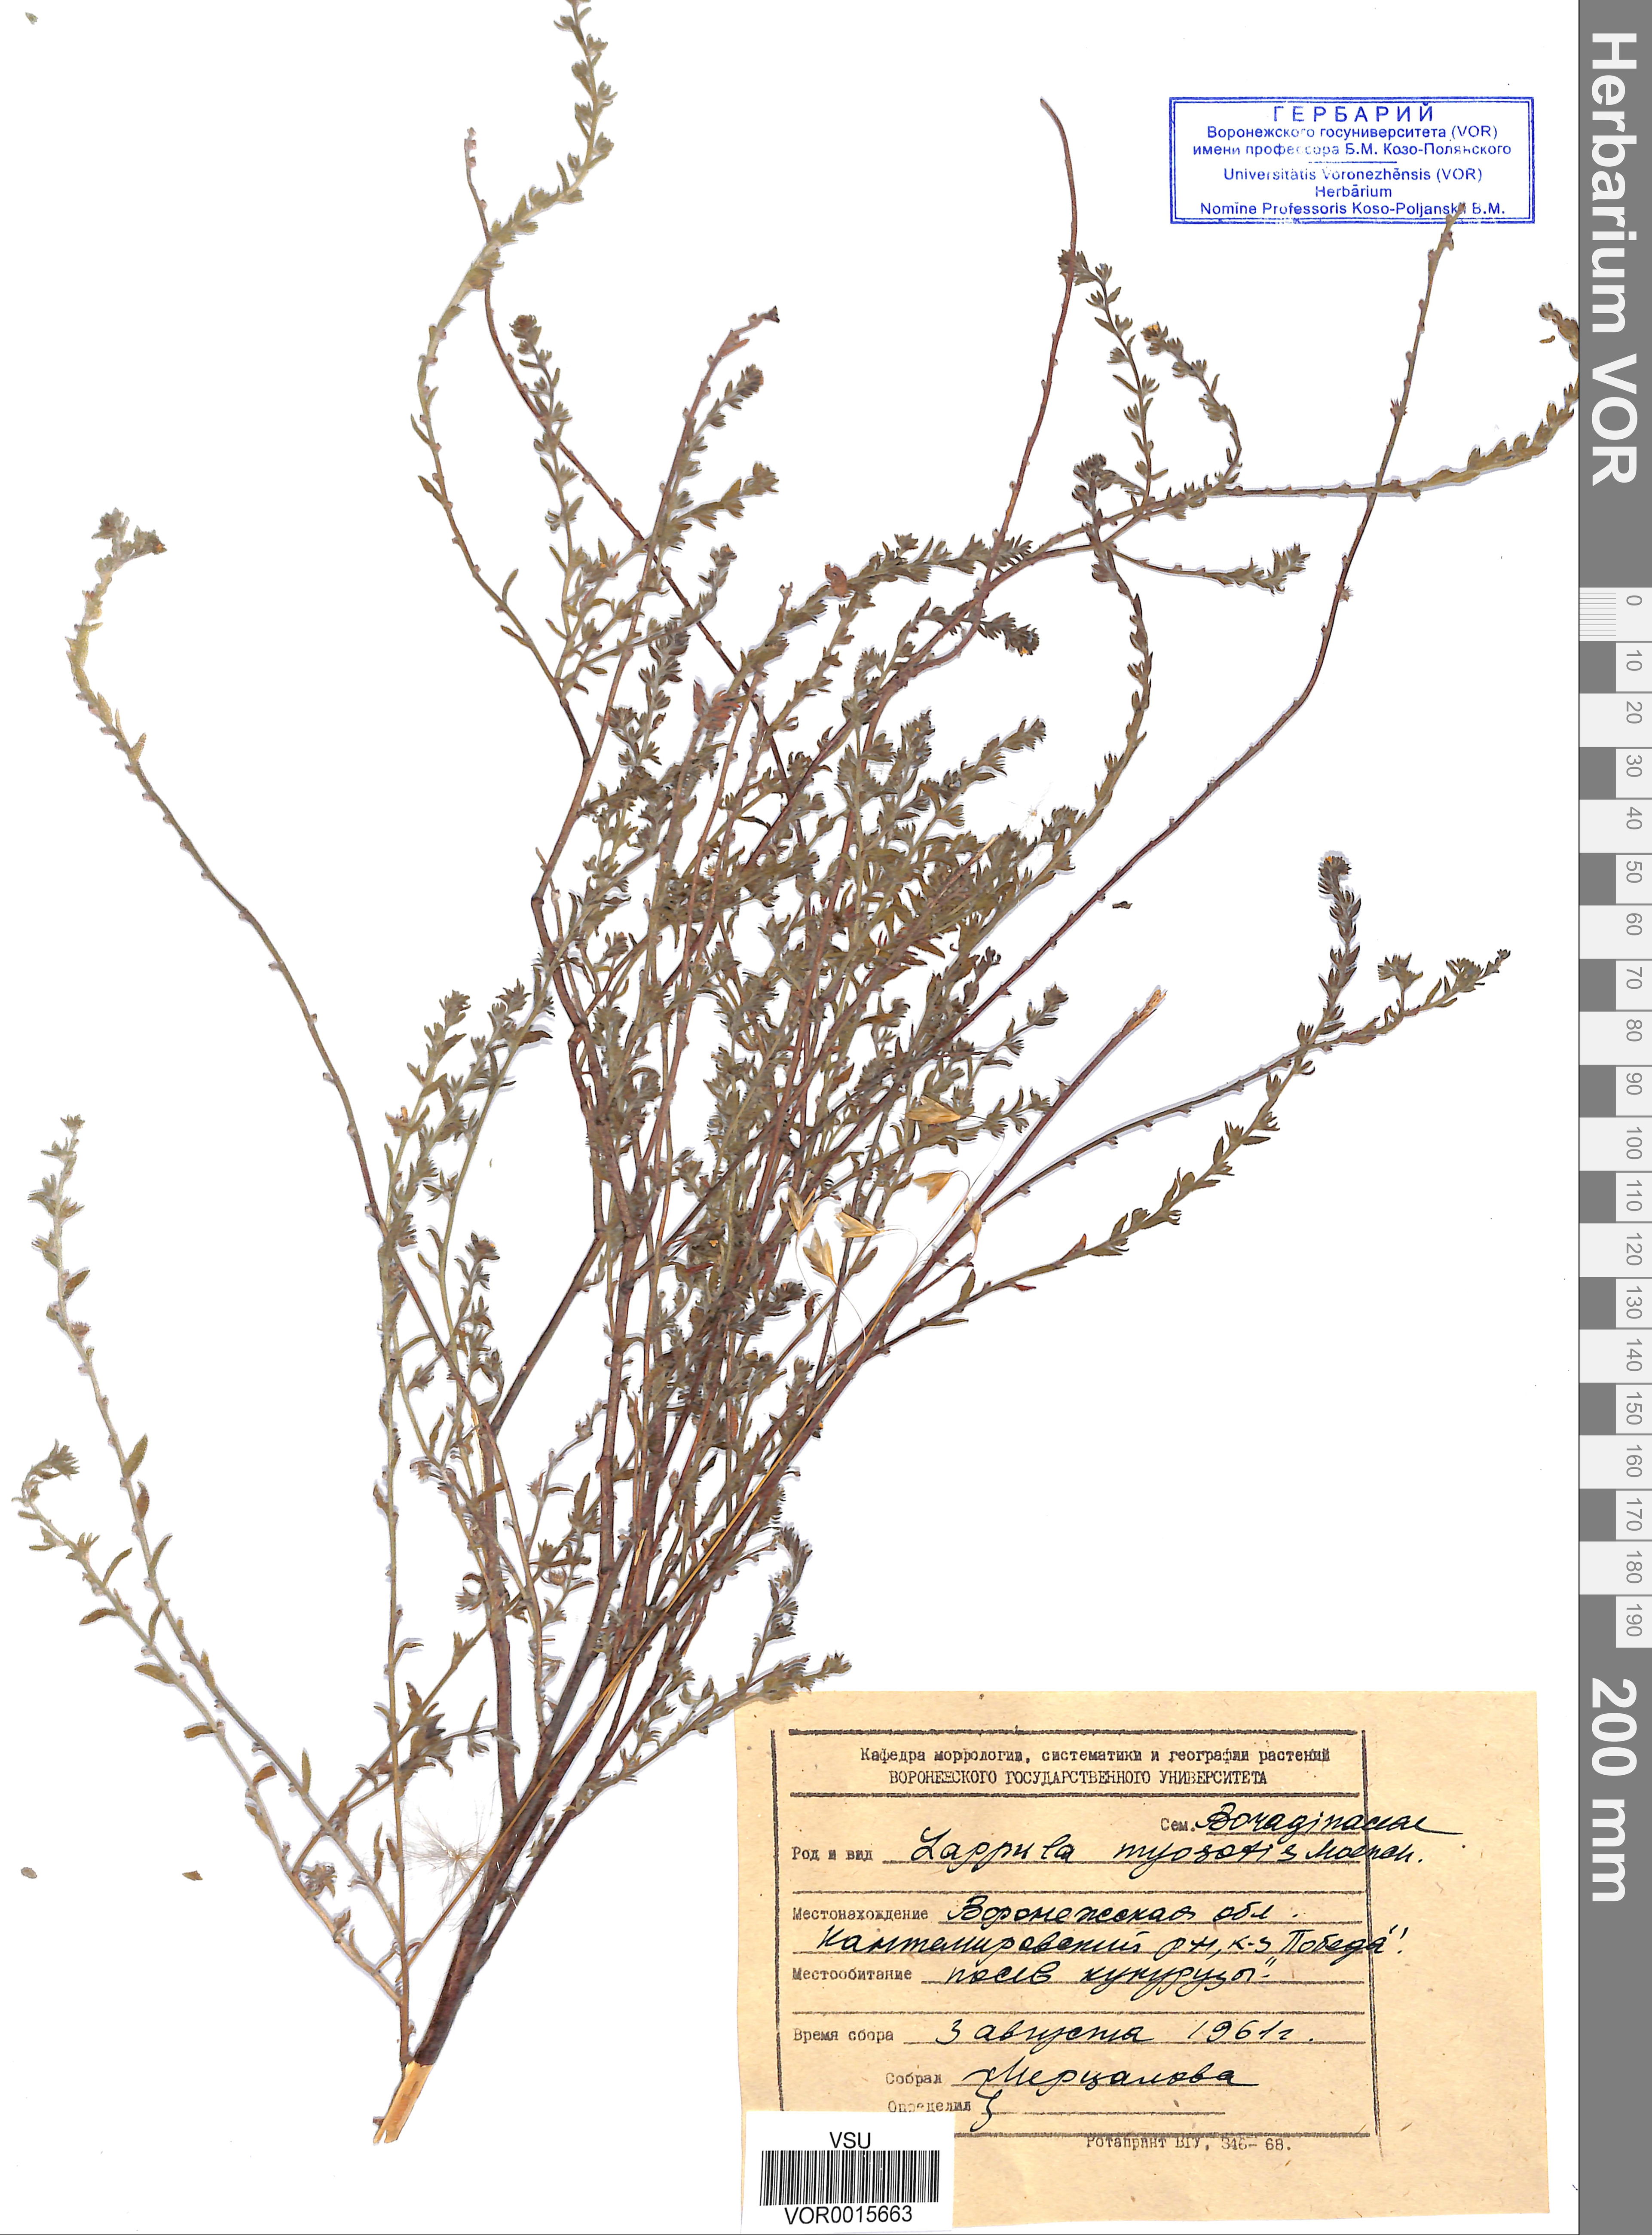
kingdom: Plantae
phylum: Tracheophyta
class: Magnoliopsida
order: Boraginales
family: Boraginaceae
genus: Lappula
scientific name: Lappula squarrosa
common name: European stickseed
